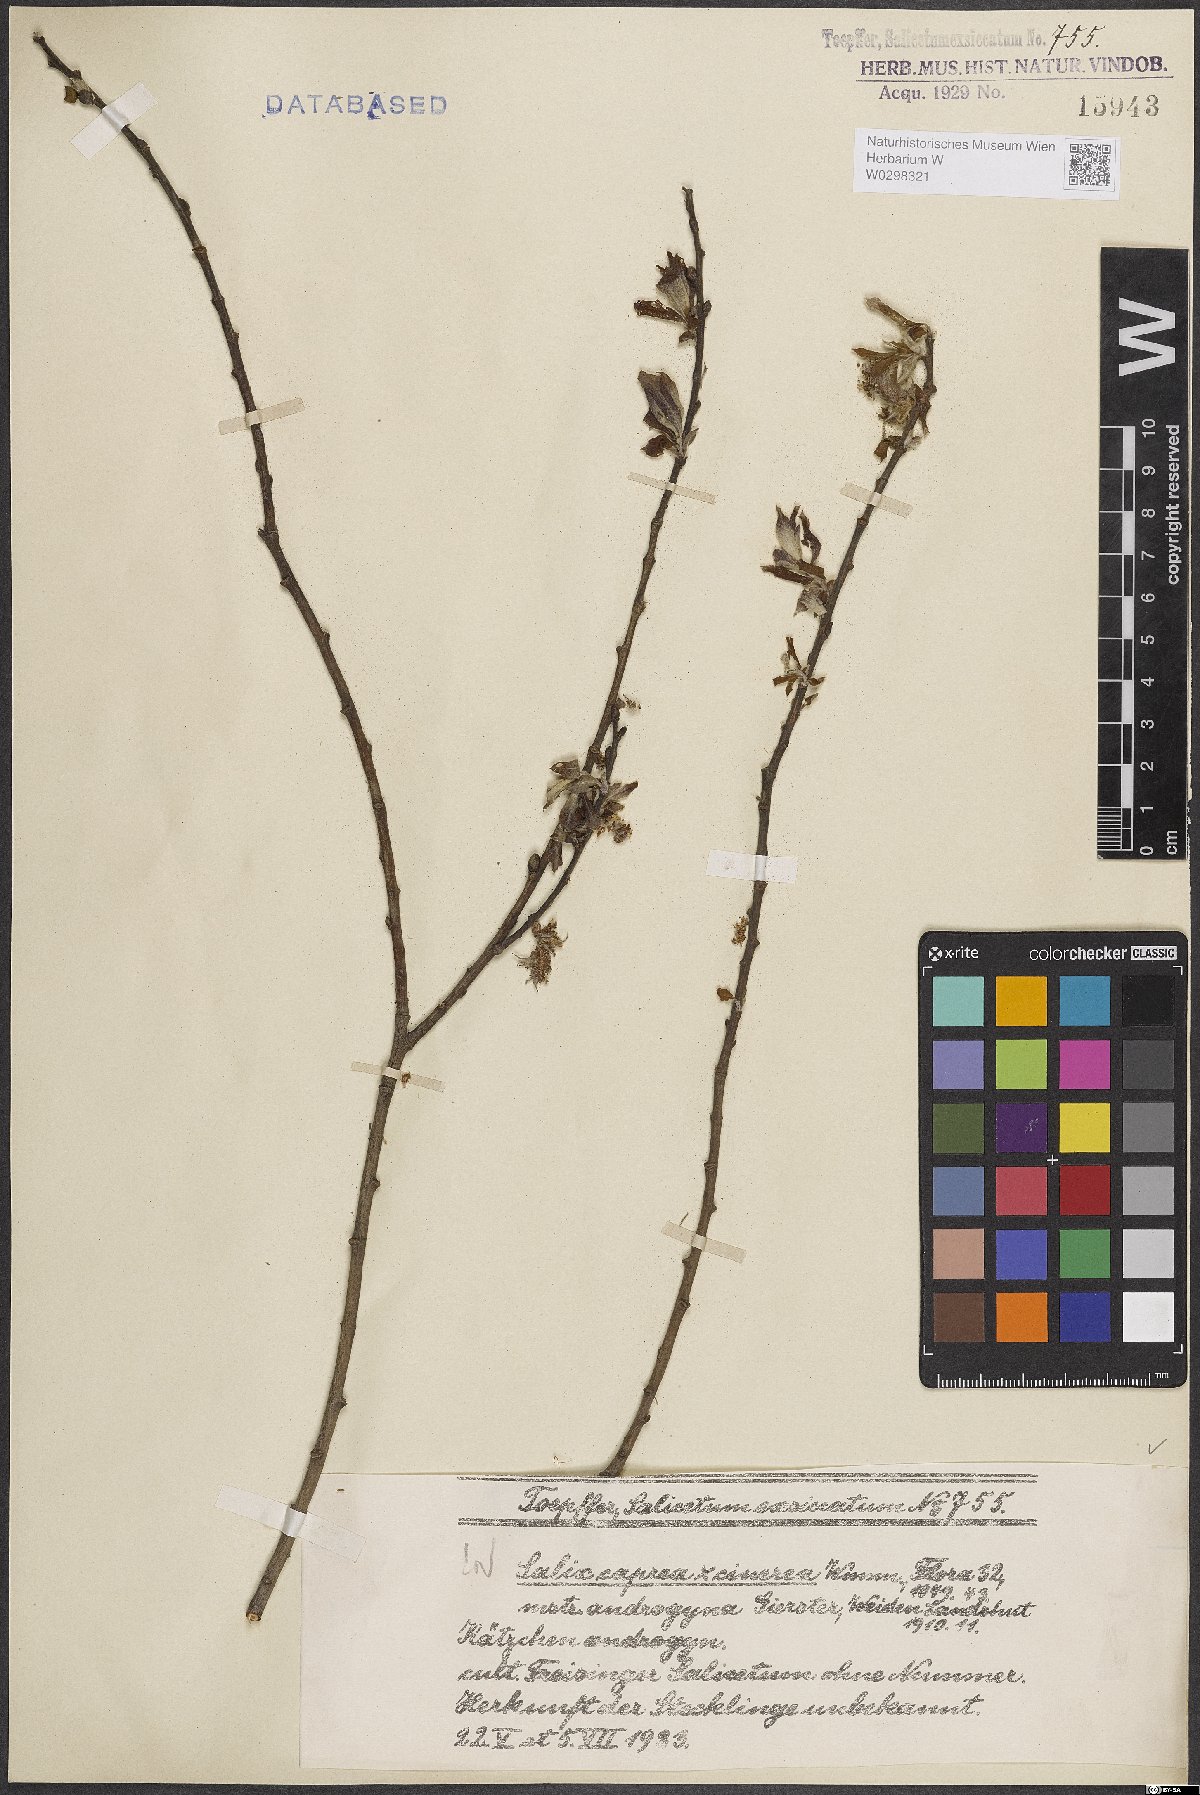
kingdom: Plantae
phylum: Tracheophyta
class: Magnoliopsida
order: Malpighiales
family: Salicaceae
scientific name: Salicaceae
